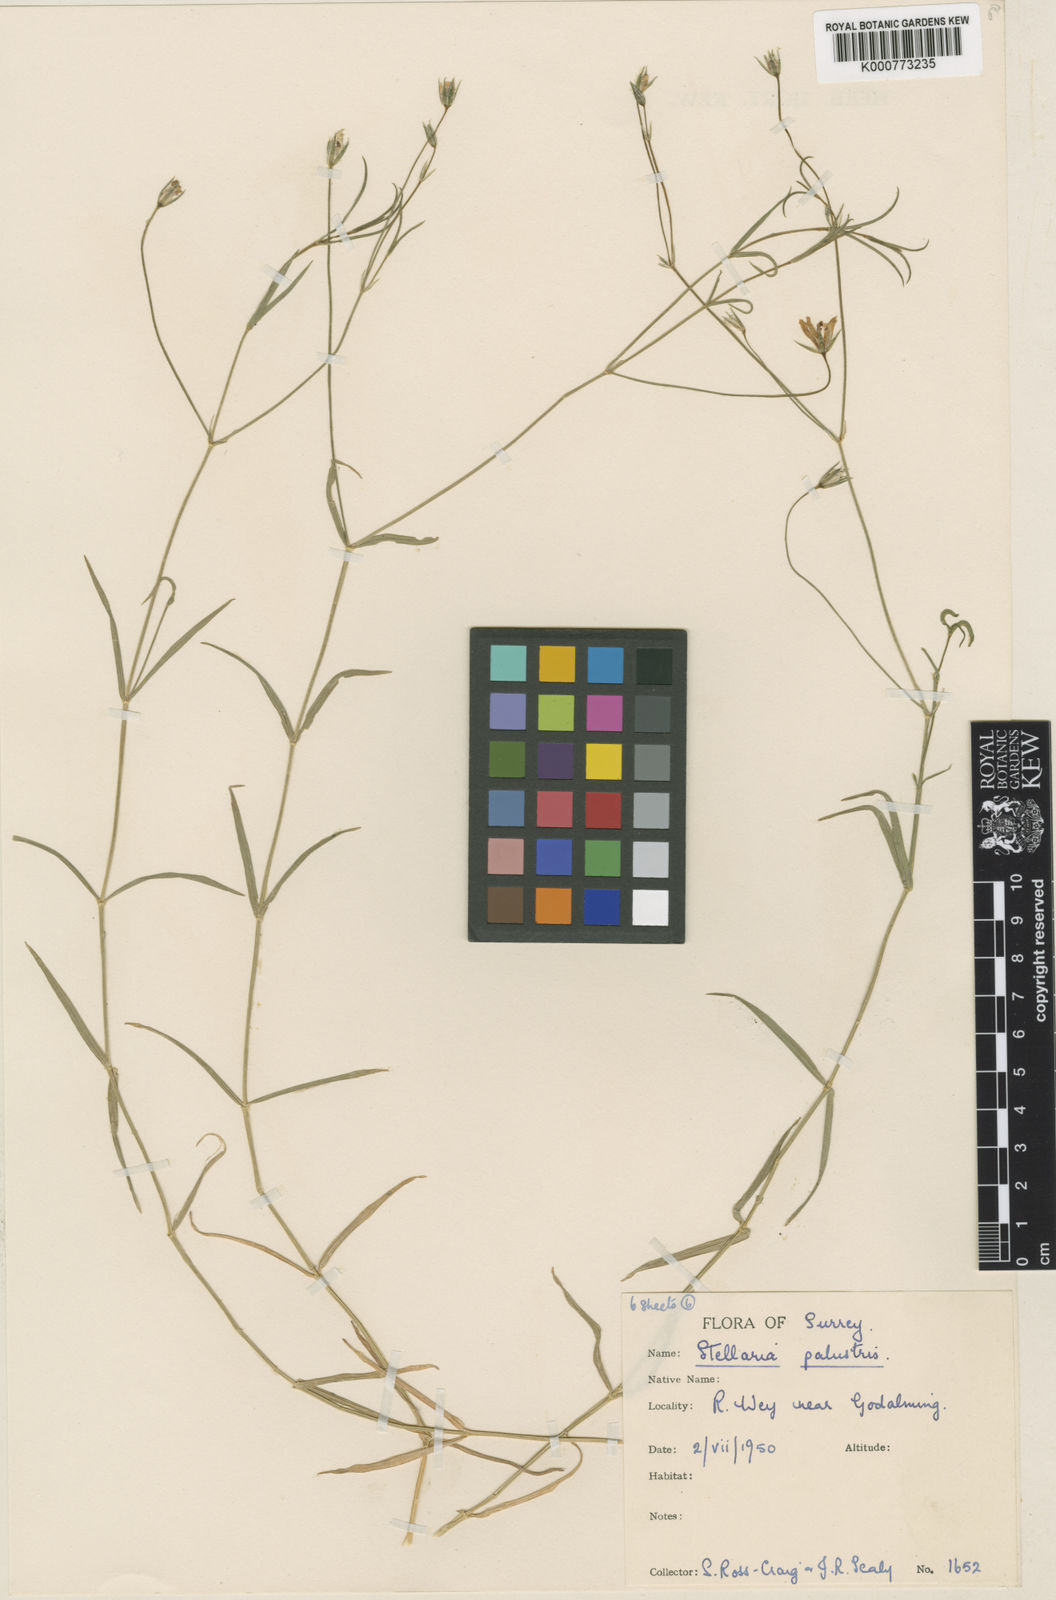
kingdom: Plantae
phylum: Tracheophyta
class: Magnoliopsida
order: Caryophyllales
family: Caryophyllaceae
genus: Stellaria
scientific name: Stellaria
